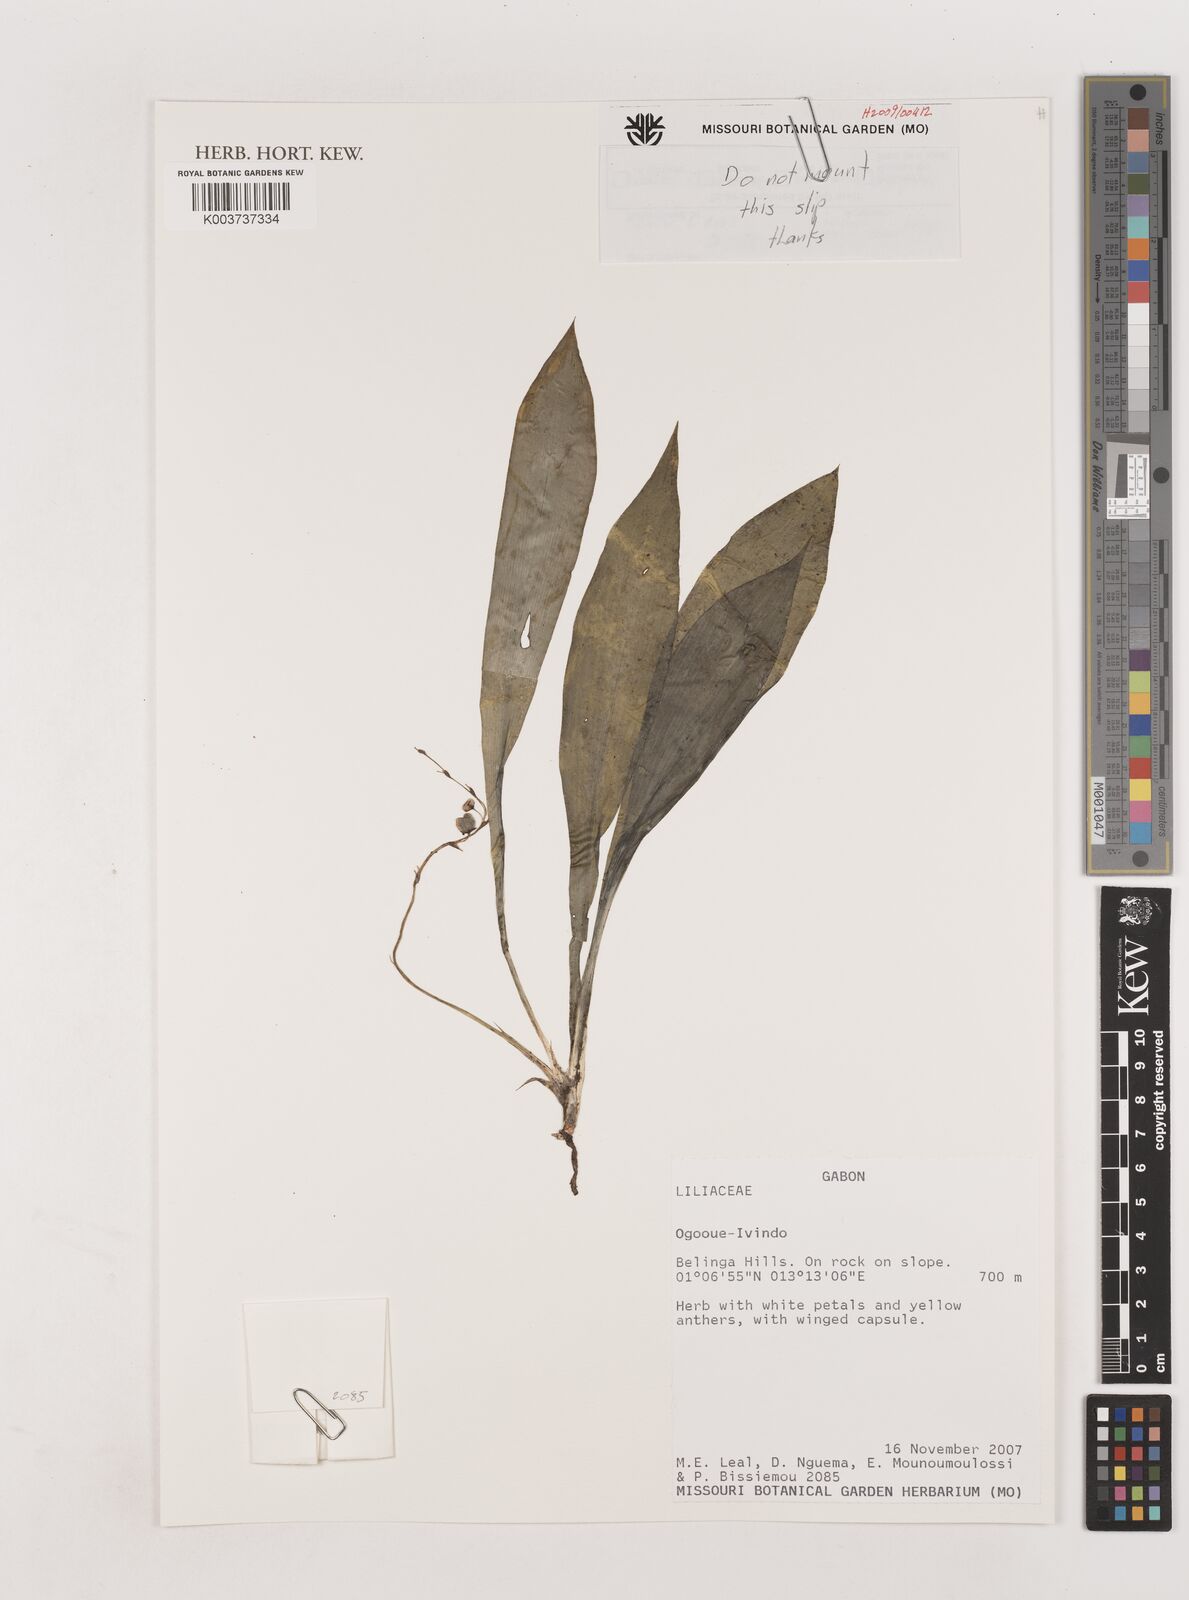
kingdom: Plantae
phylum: Tracheophyta
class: Liliopsida
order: Asparagales
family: Asparagaceae
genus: Chlorophytum
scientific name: Chlorophytum
